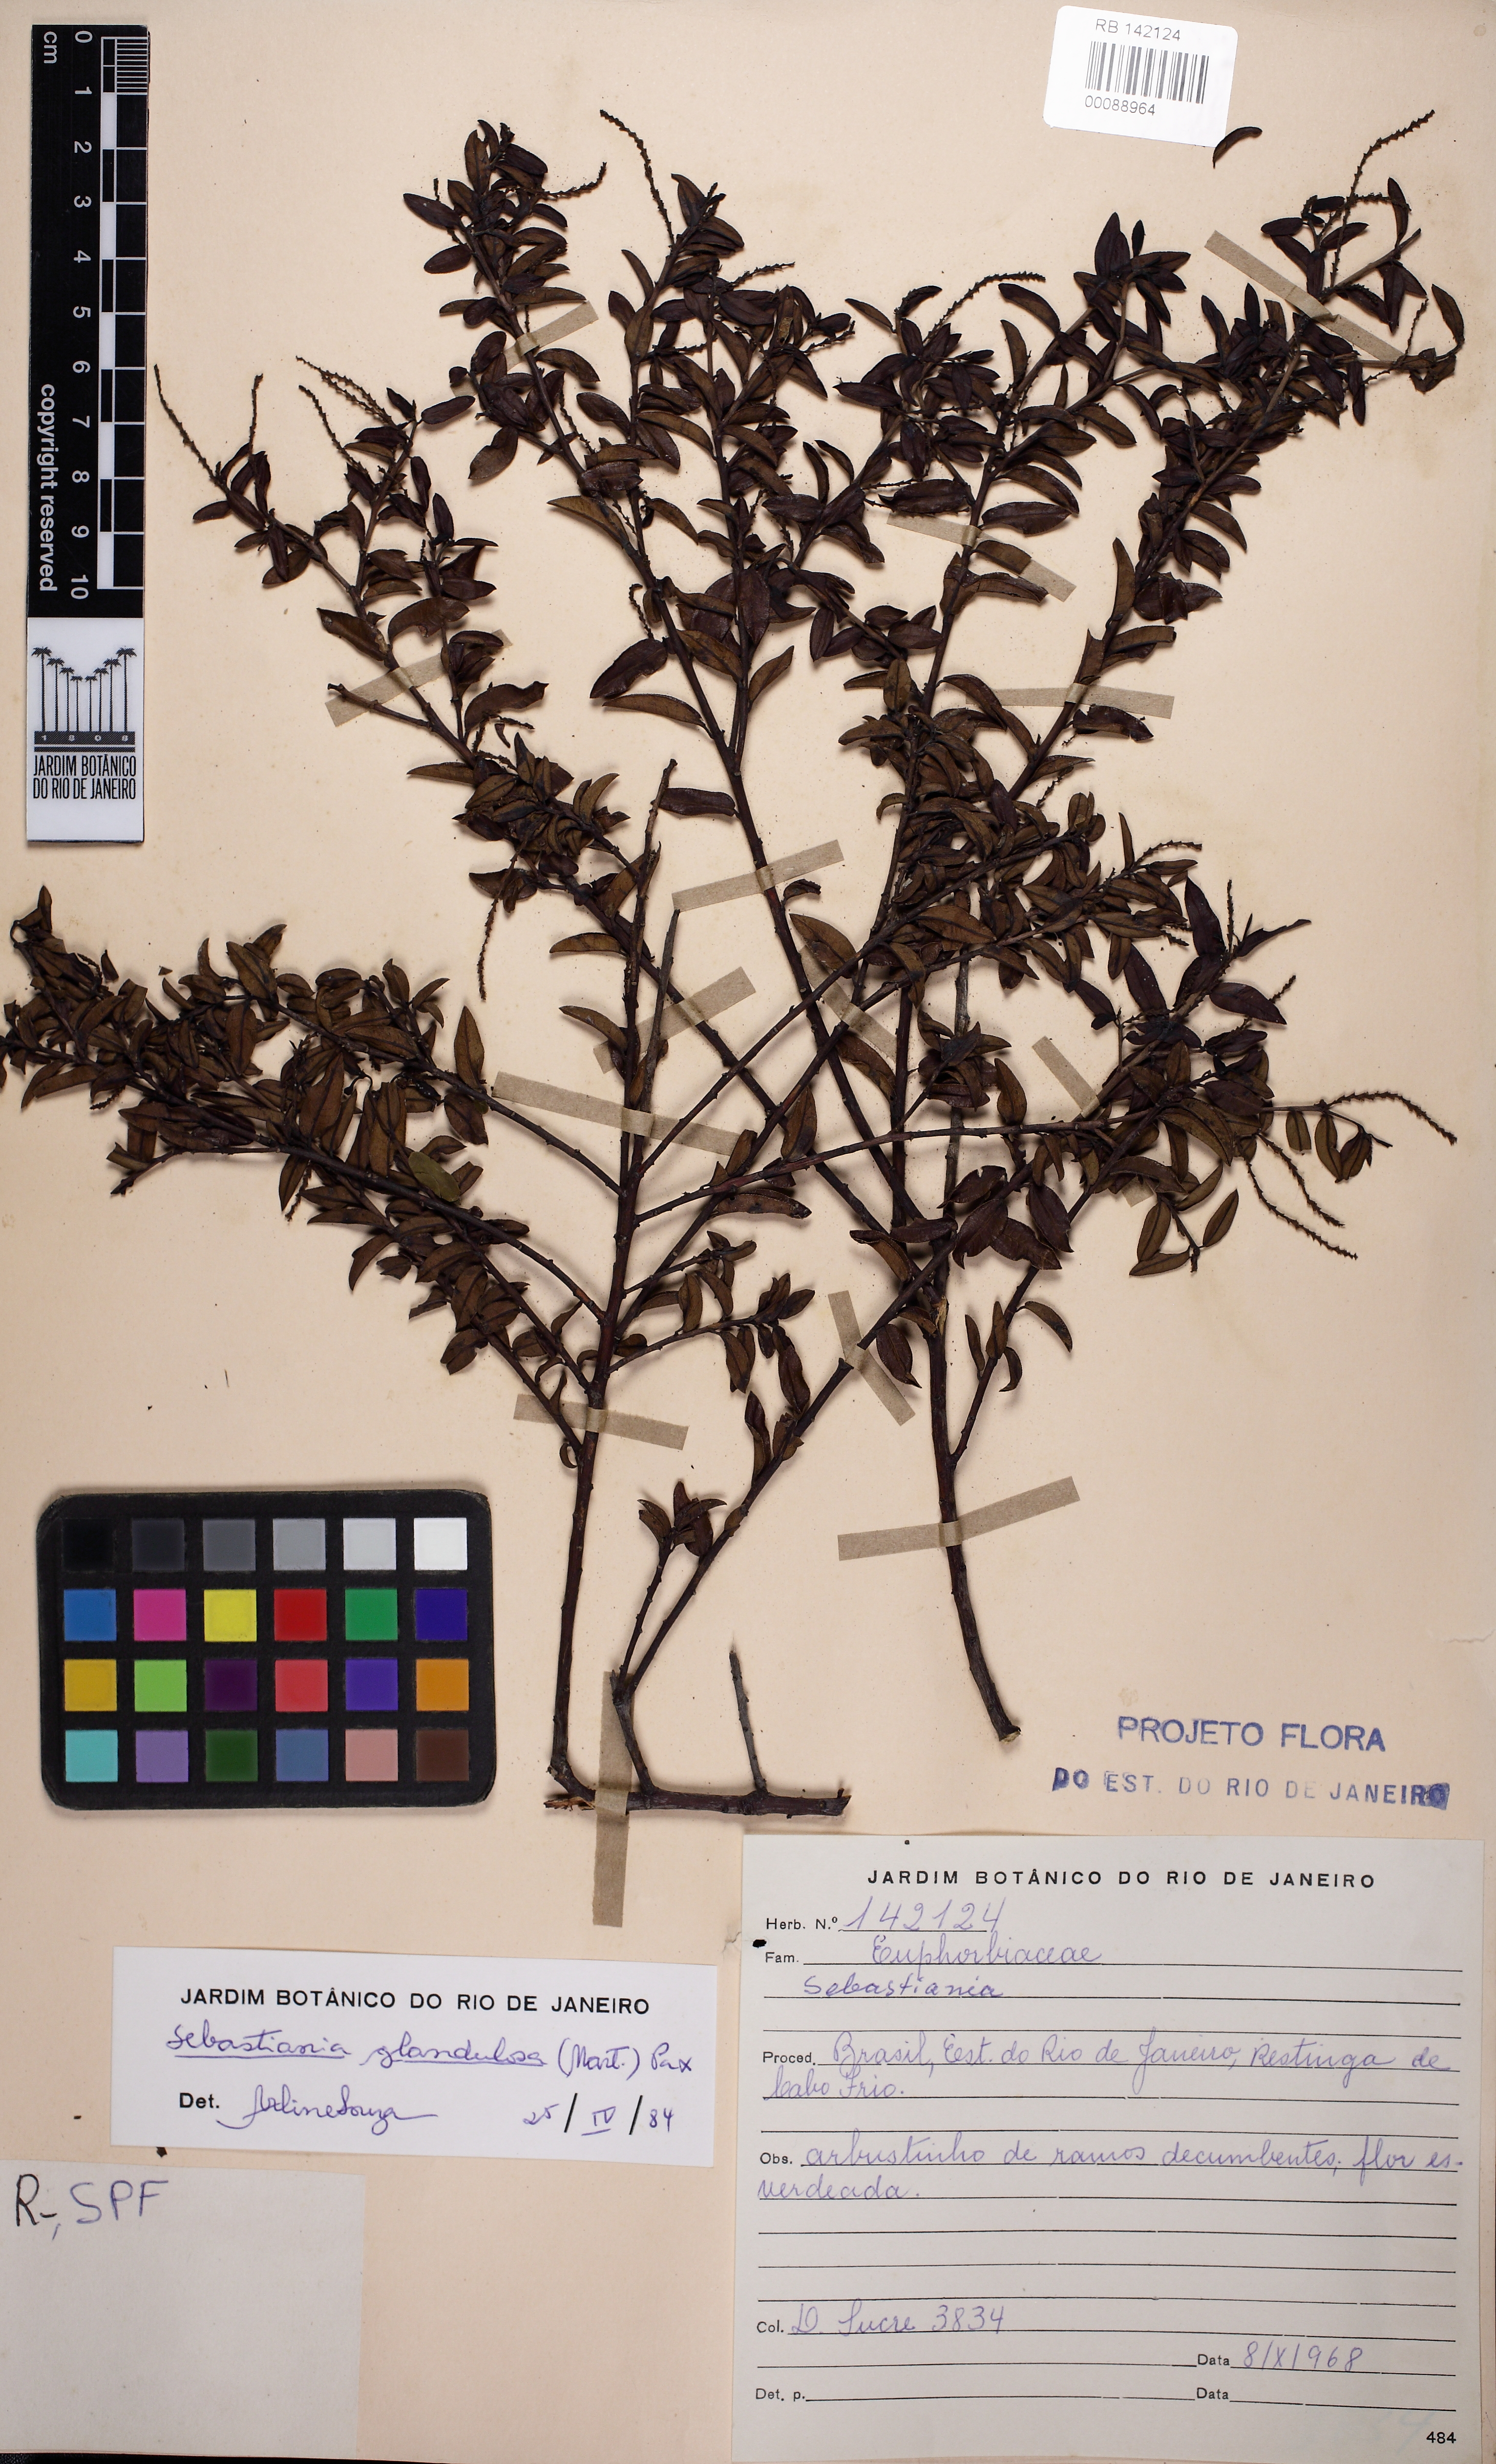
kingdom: Plantae
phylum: Tracheophyta
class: Magnoliopsida
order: Malpighiales
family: Euphorbiaceae
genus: Microstachys
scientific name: Microstachys
